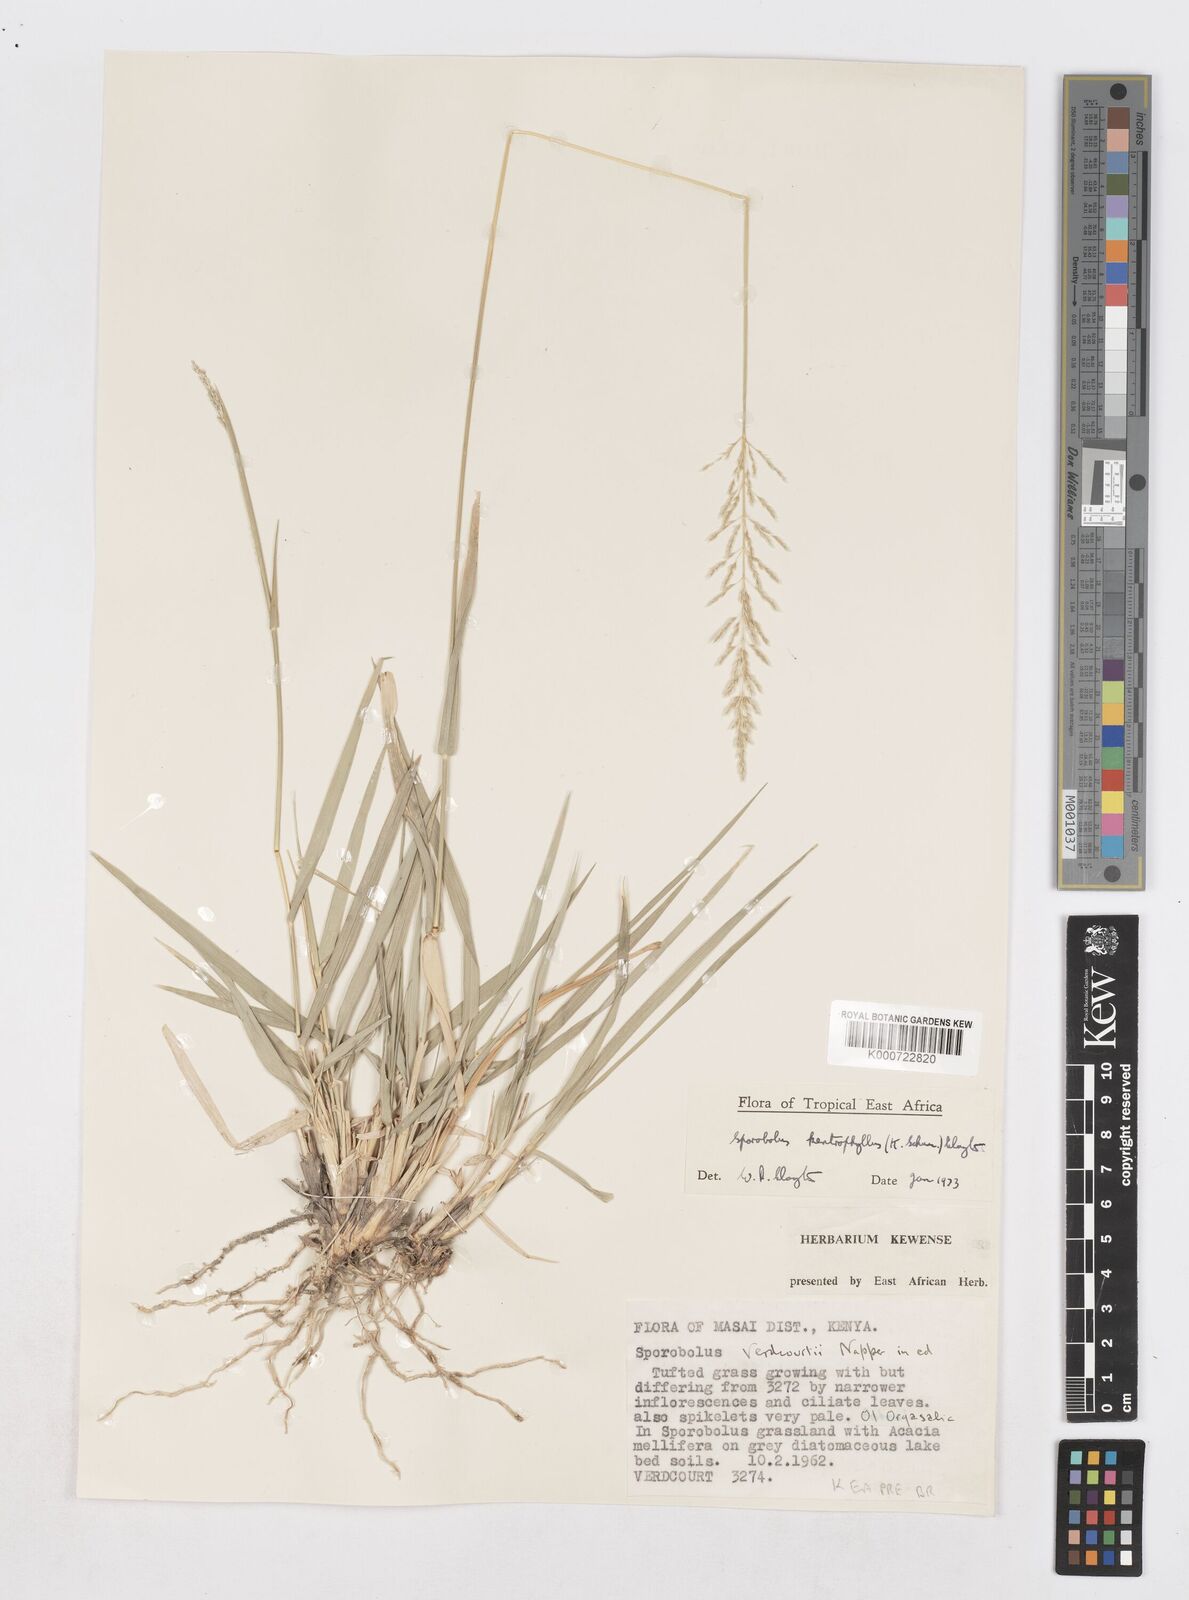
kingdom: Plantae
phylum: Tracheophyta
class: Liliopsida
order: Poales
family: Poaceae
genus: Sporobolus
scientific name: Sporobolus ioclados
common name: Pan dropseed
